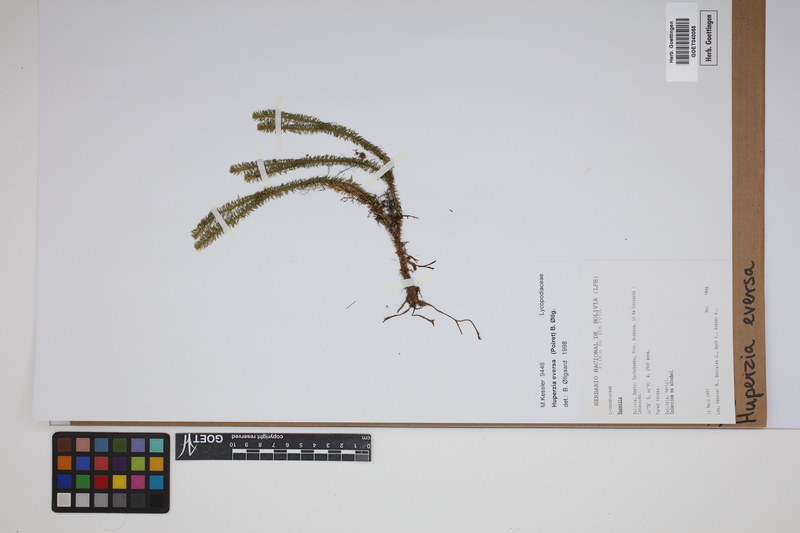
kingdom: Plantae
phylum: Tracheophyta
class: Lycopodiopsida
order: Lycopodiales
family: Lycopodiaceae
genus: Phlegmariurus
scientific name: Phlegmariurus eversus
